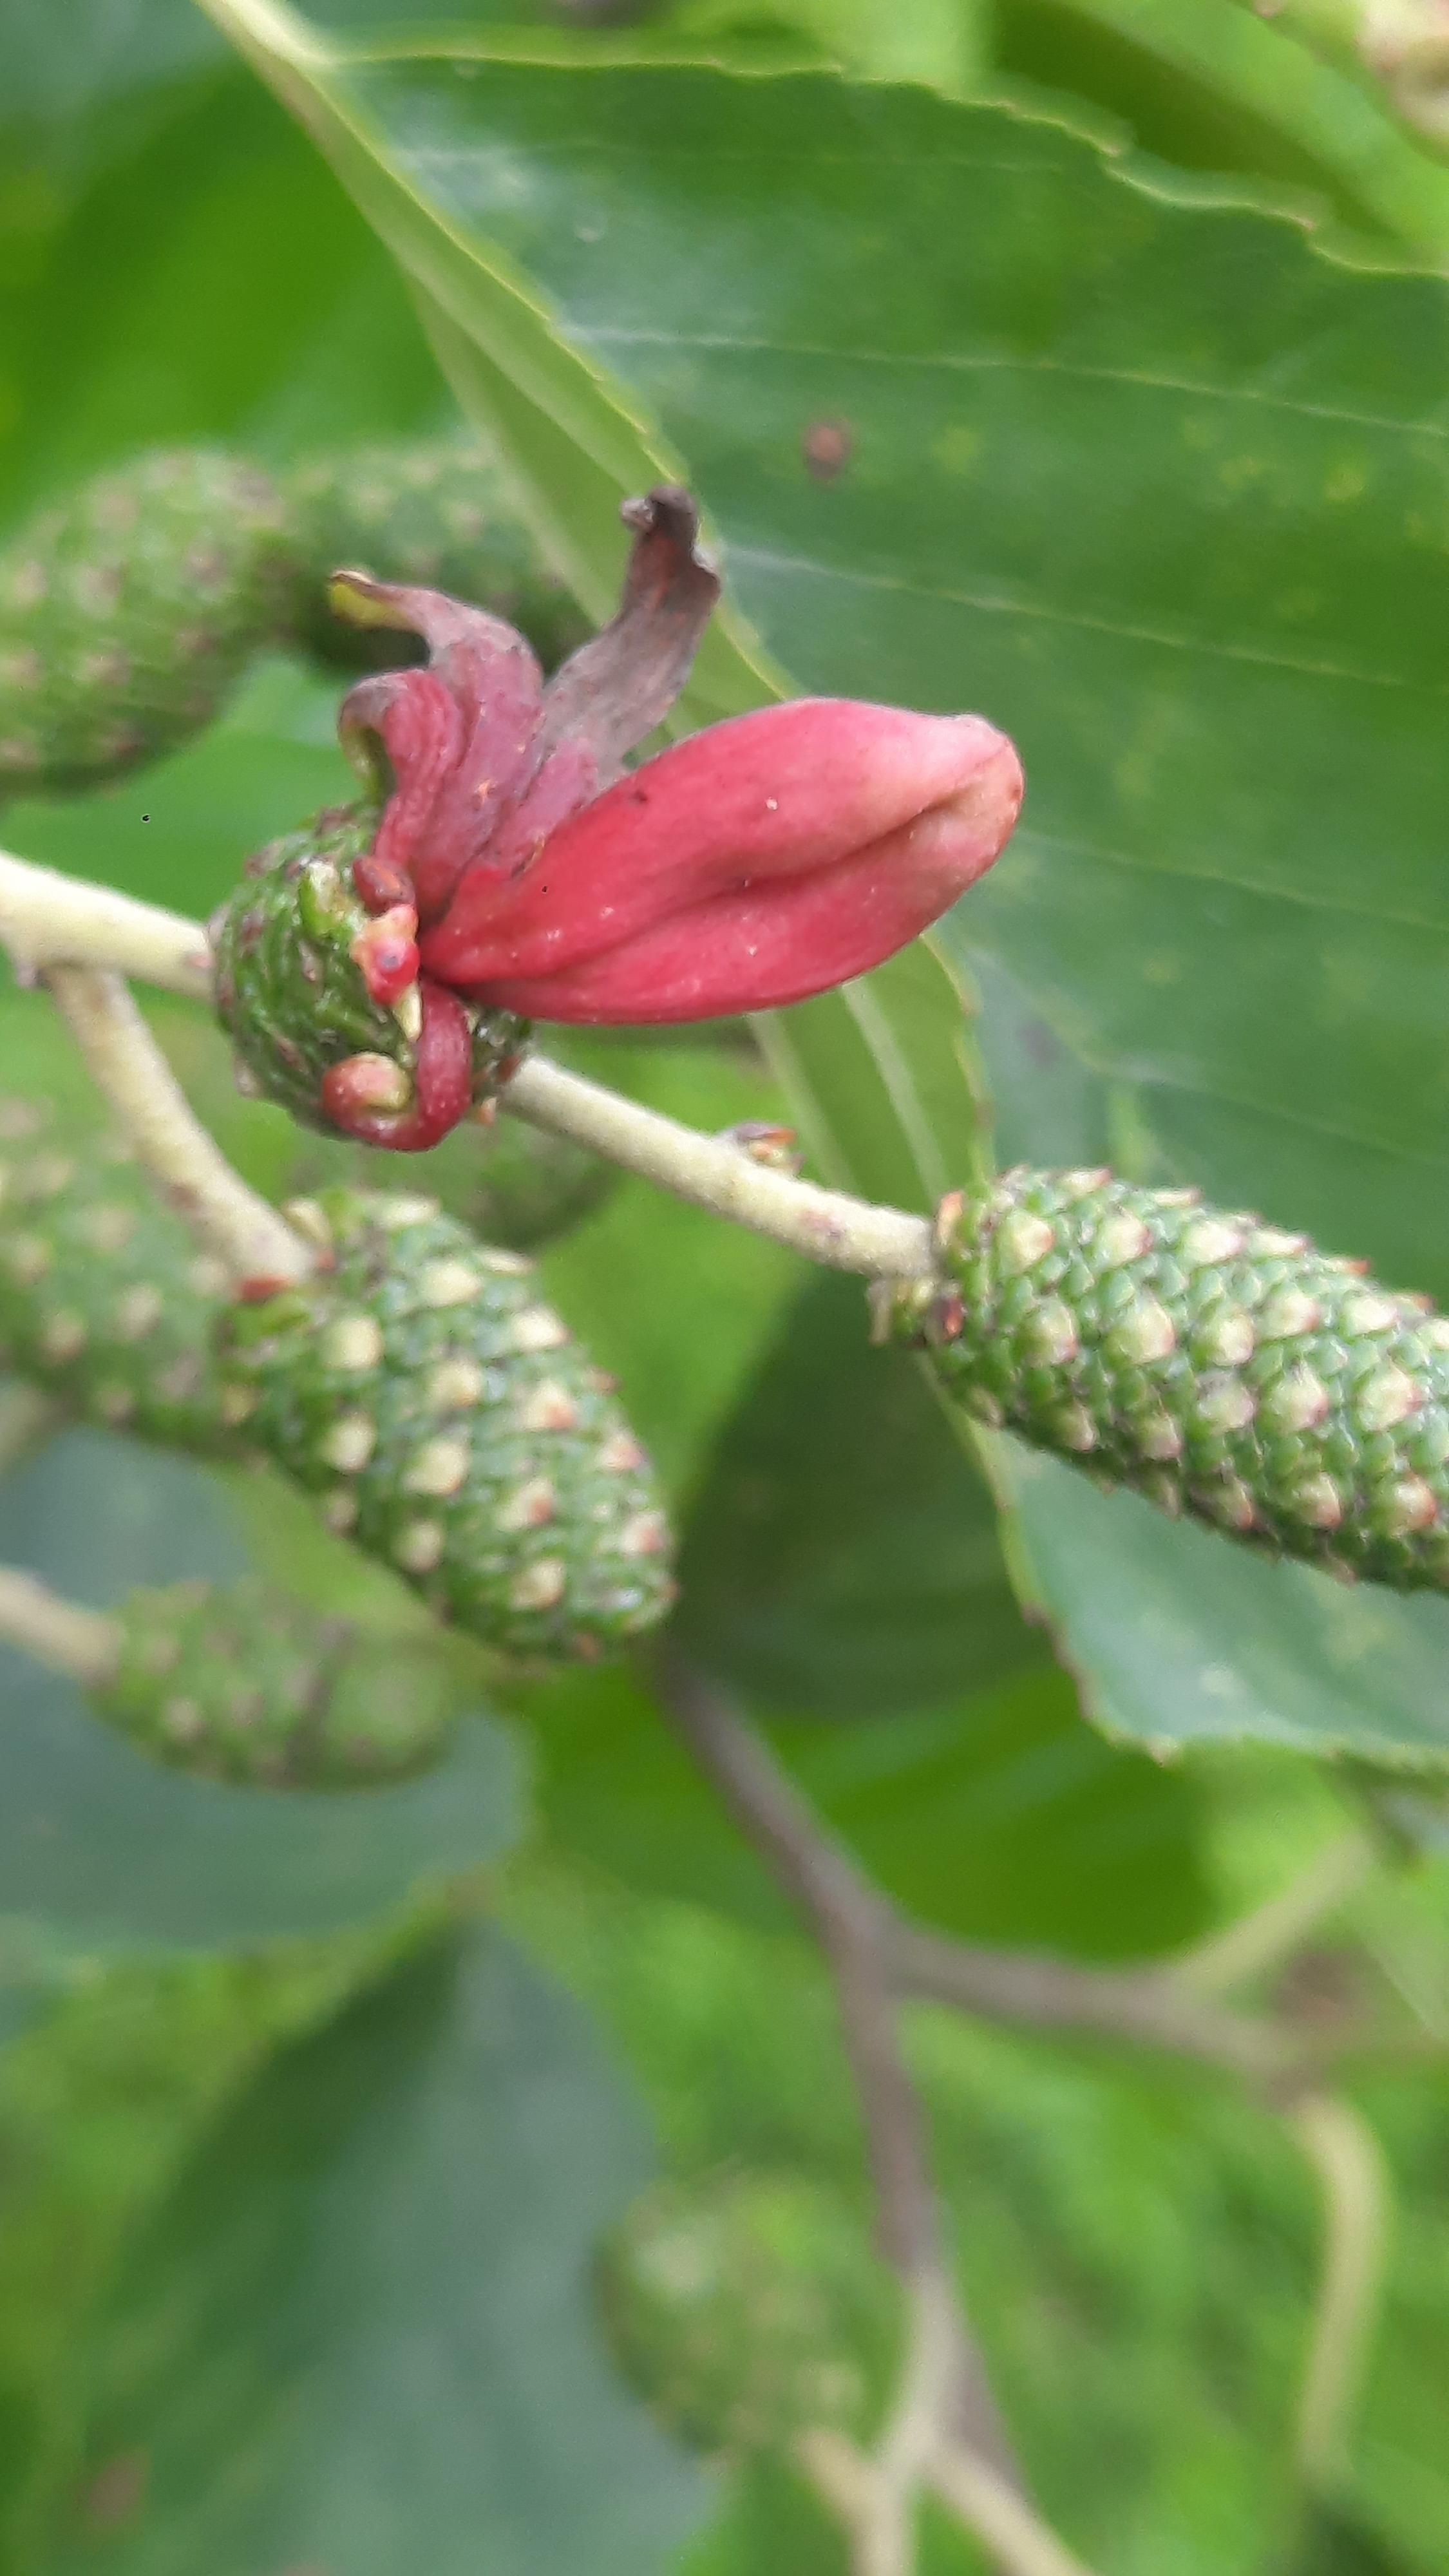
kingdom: Fungi
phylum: Ascomycota
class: Taphrinomycetes
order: Taphrinales
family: Taphrinaceae
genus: Taphrina
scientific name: Taphrina alni
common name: Alder tongue
